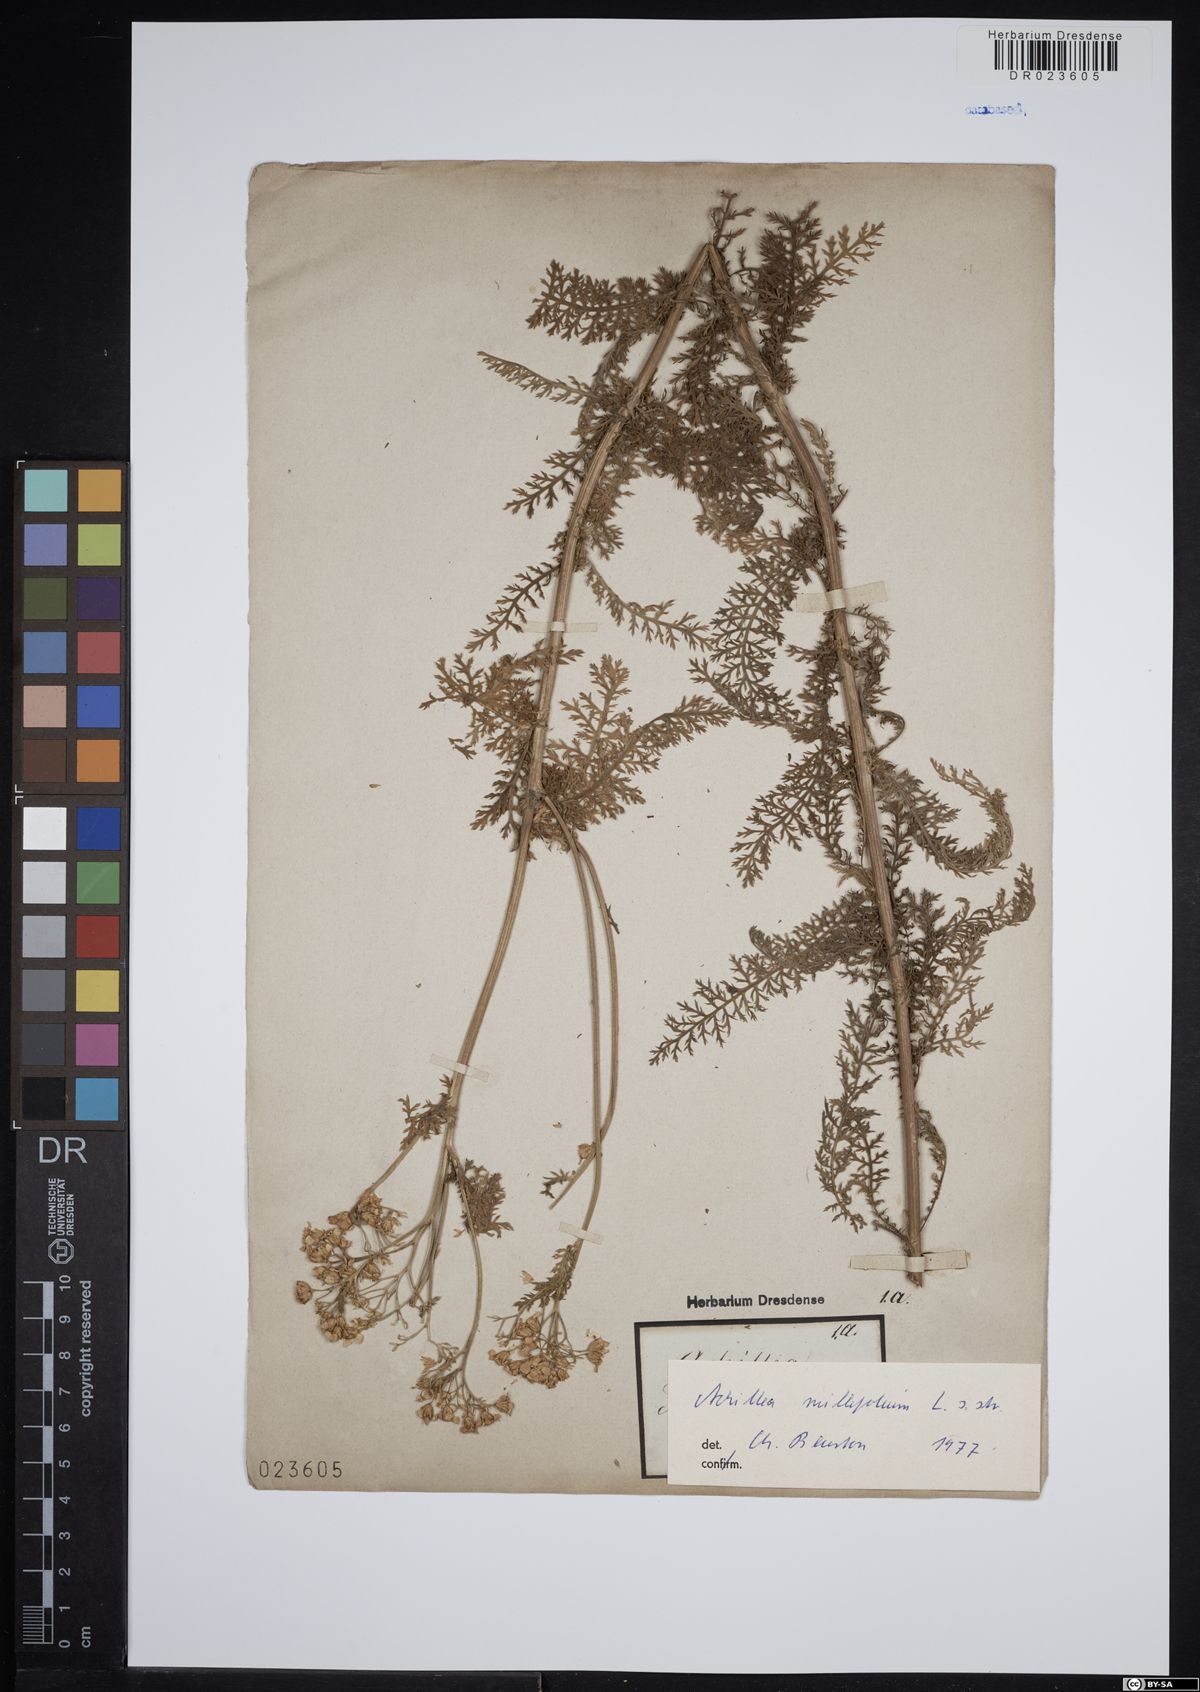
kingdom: Plantae
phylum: Tracheophyta
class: Magnoliopsida
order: Asterales
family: Asteraceae
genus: Achillea
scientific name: Achillea millefolium
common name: Yarrow
